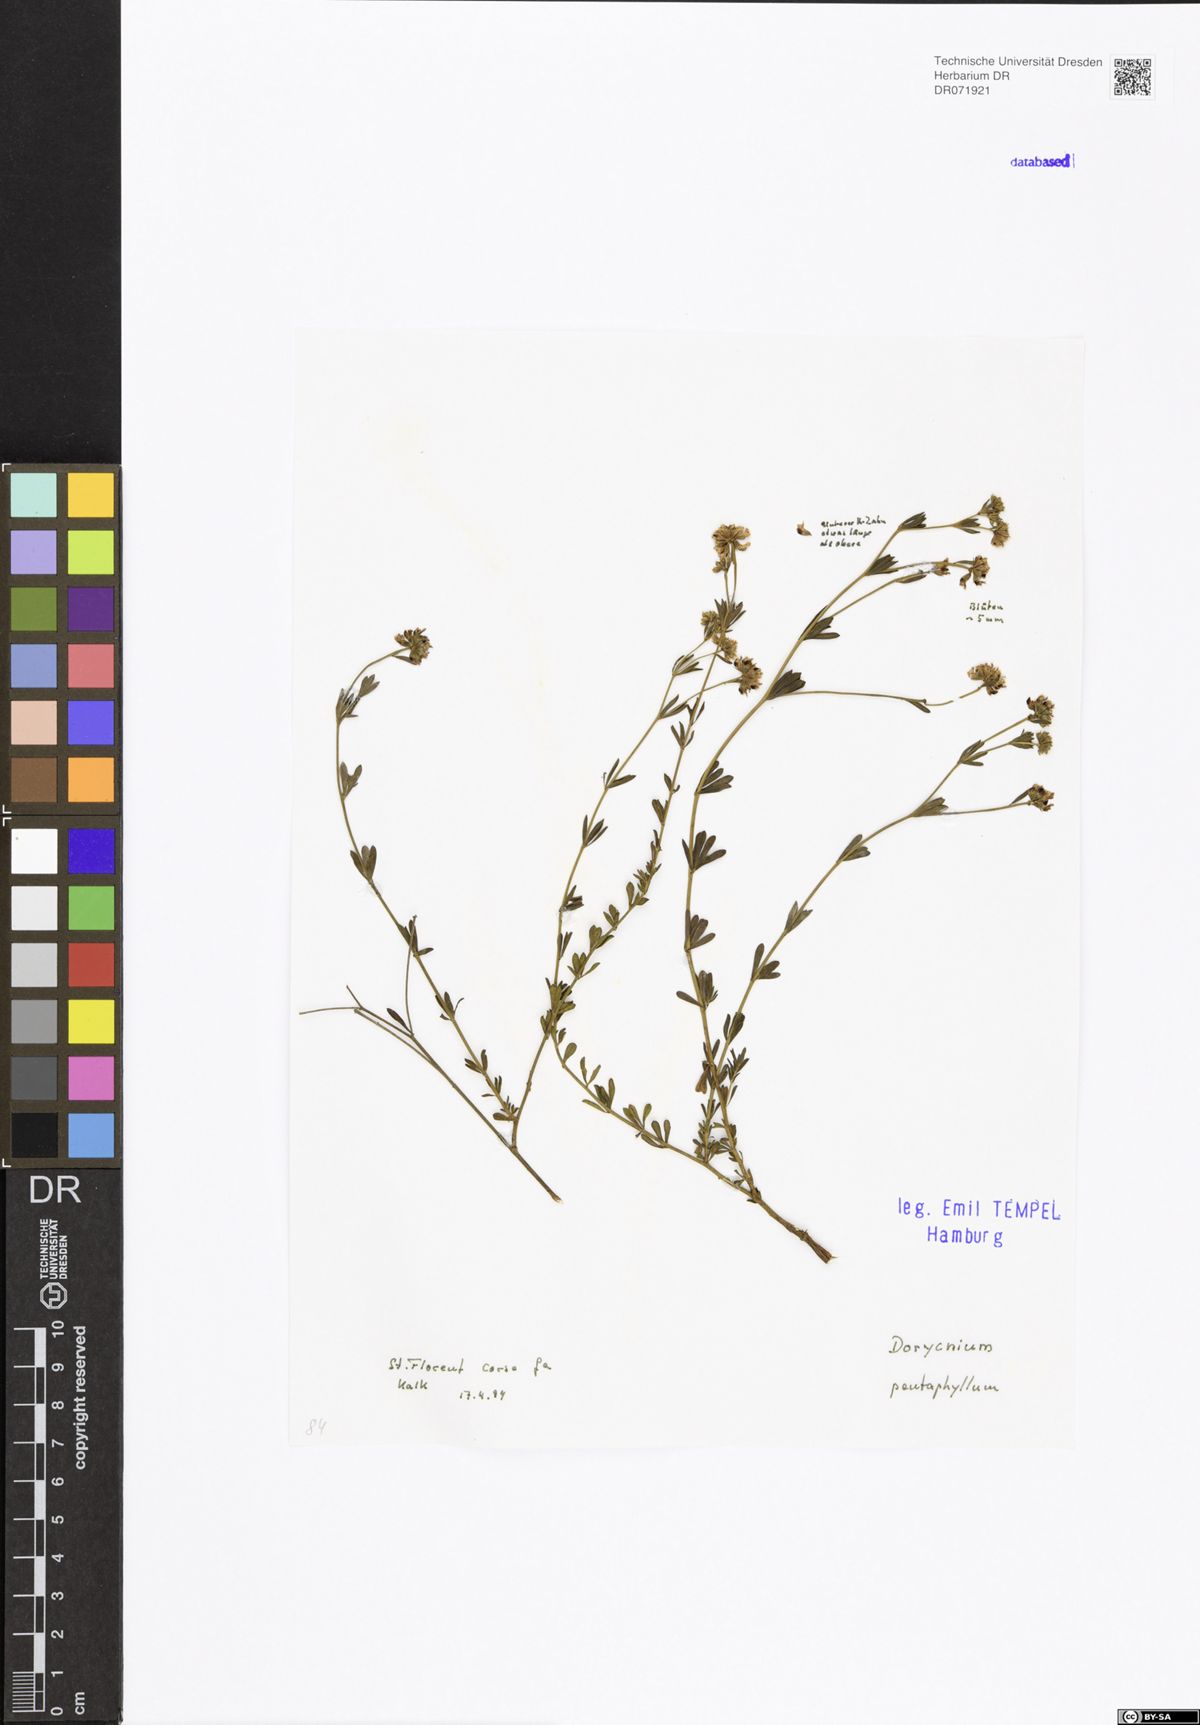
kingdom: Plantae
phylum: Tracheophyta
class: Magnoliopsida
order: Fabales
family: Fabaceae
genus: Lotus
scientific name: Lotus dorycnium
